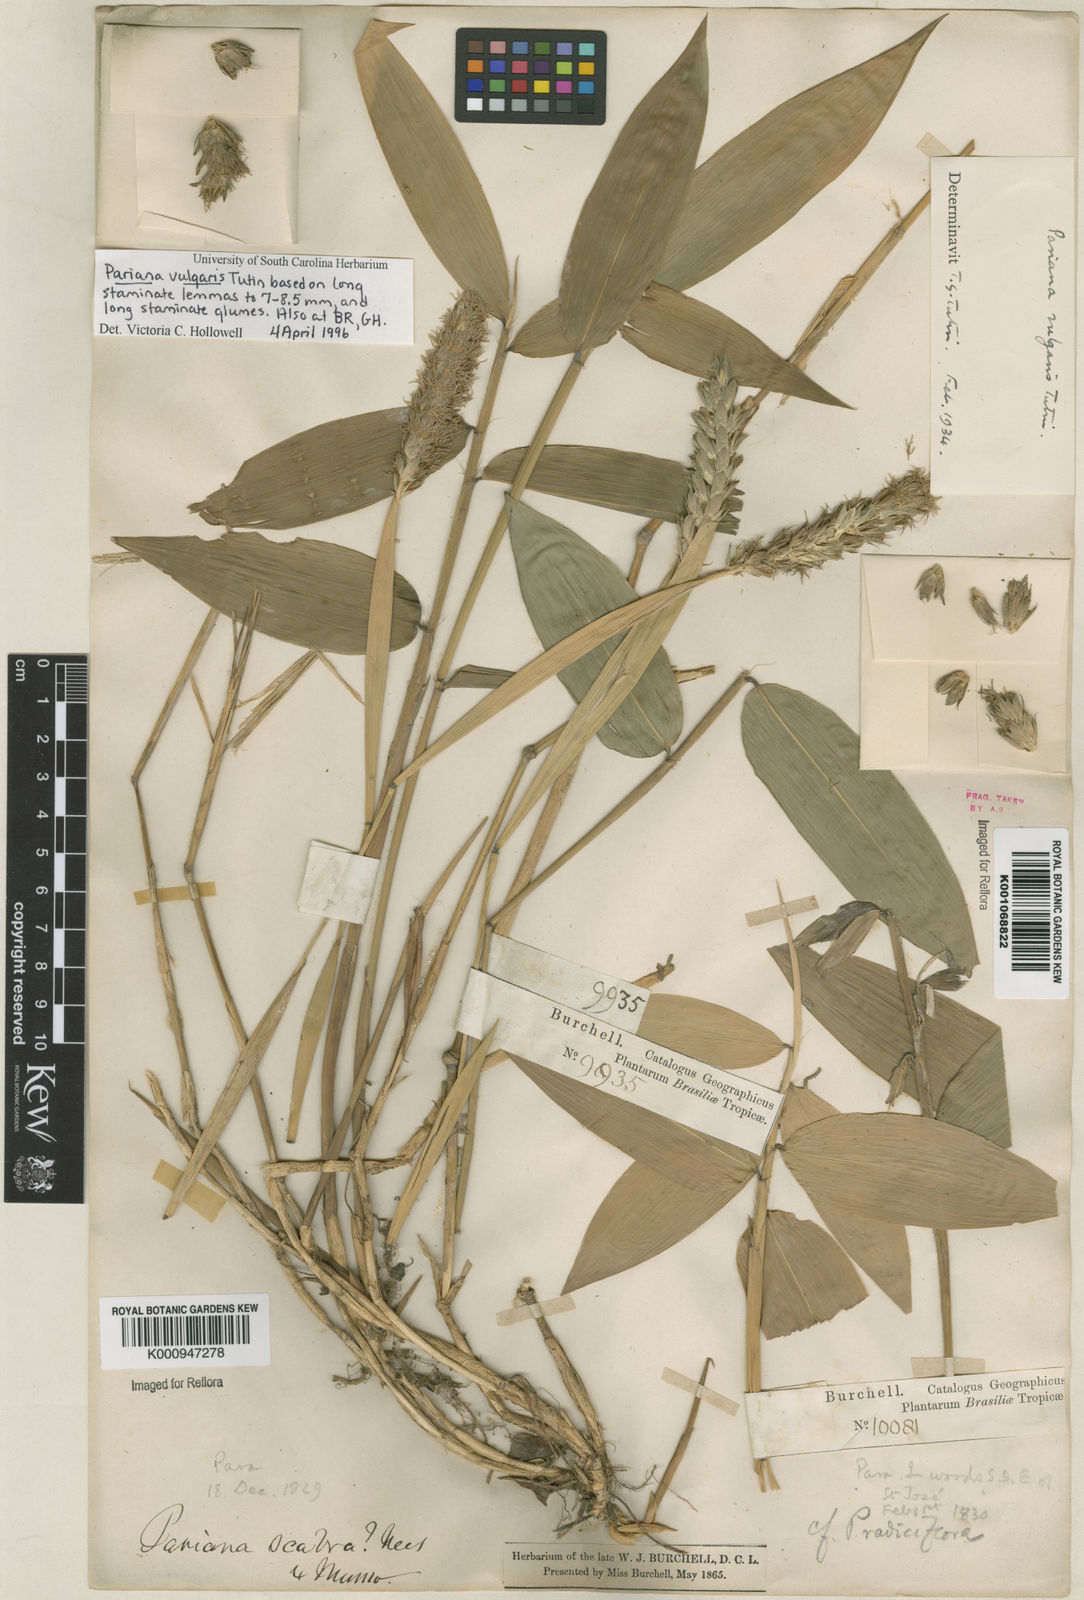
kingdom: Plantae
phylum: Tracheophyta
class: Liliopsida
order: Poales
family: Poaceae
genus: Pariana
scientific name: Pariana vulgaris
